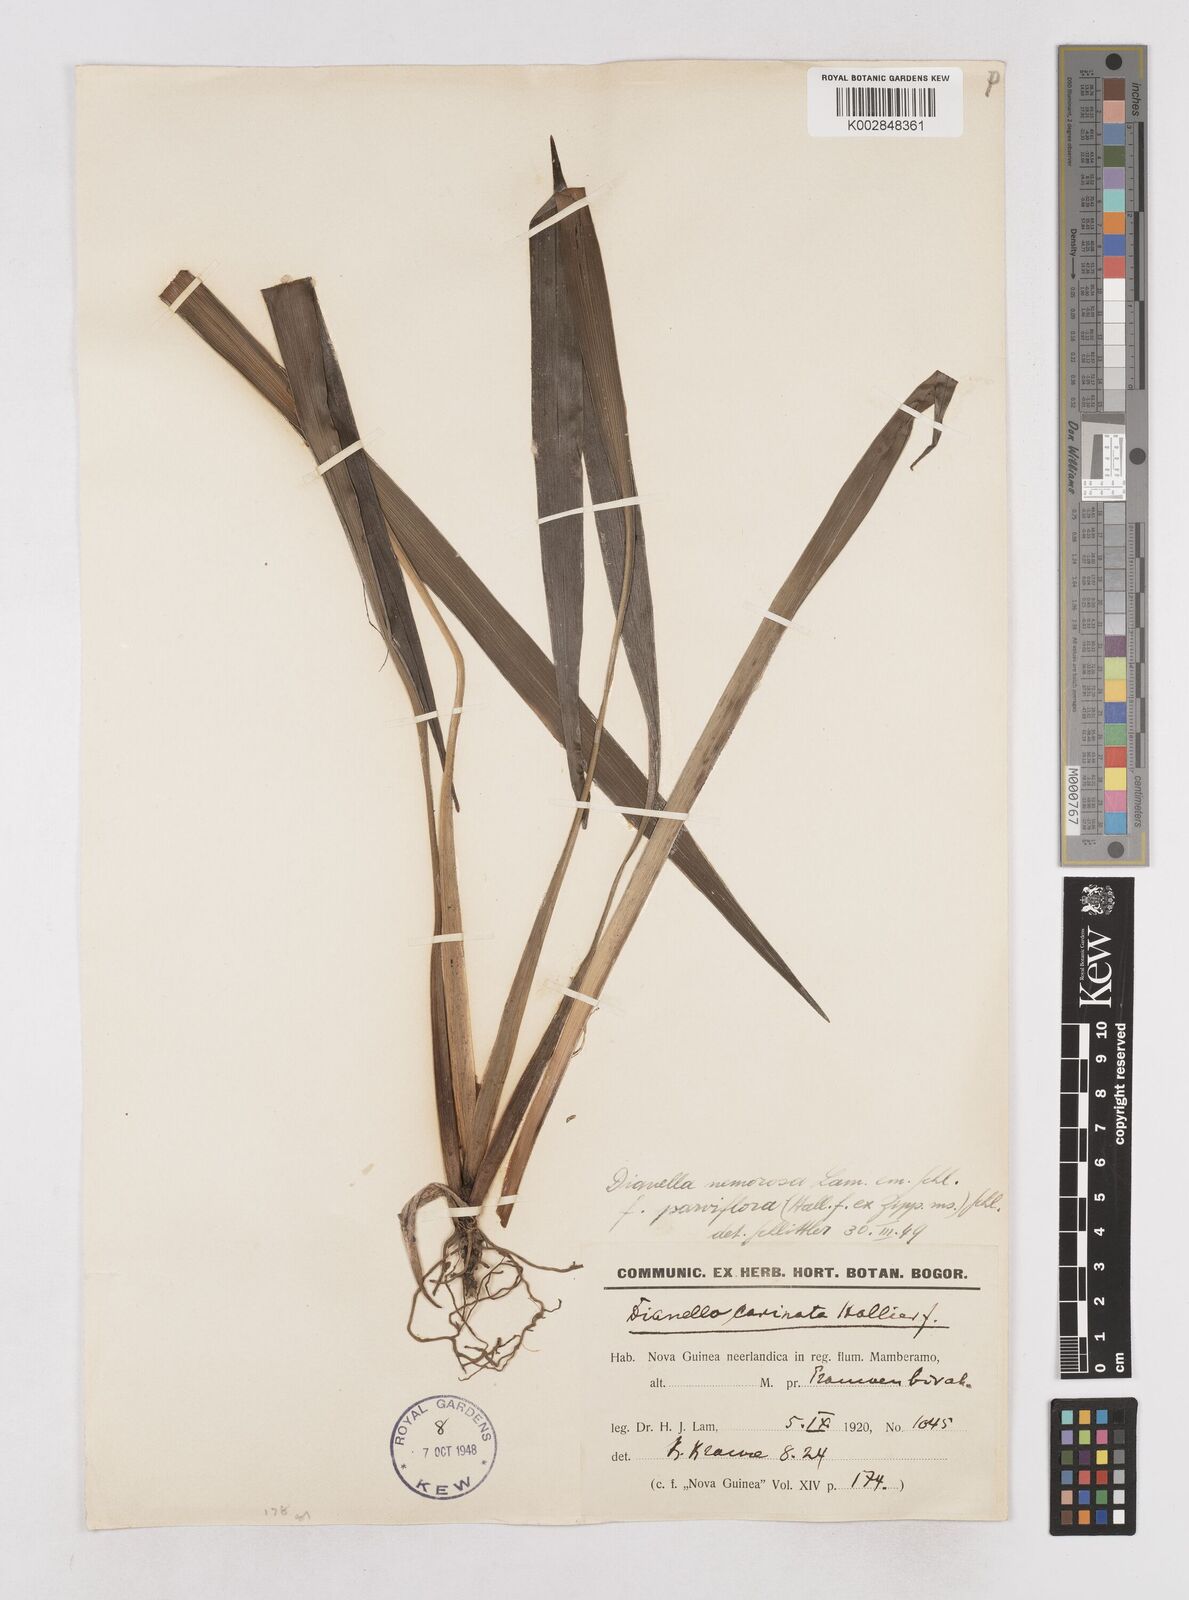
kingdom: Plantae
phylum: Tracheophyta
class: Liliopsida
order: Asparagales
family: Asphodelaceae
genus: Dianella
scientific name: Dianella ensifolia
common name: New zealand lilyplant
